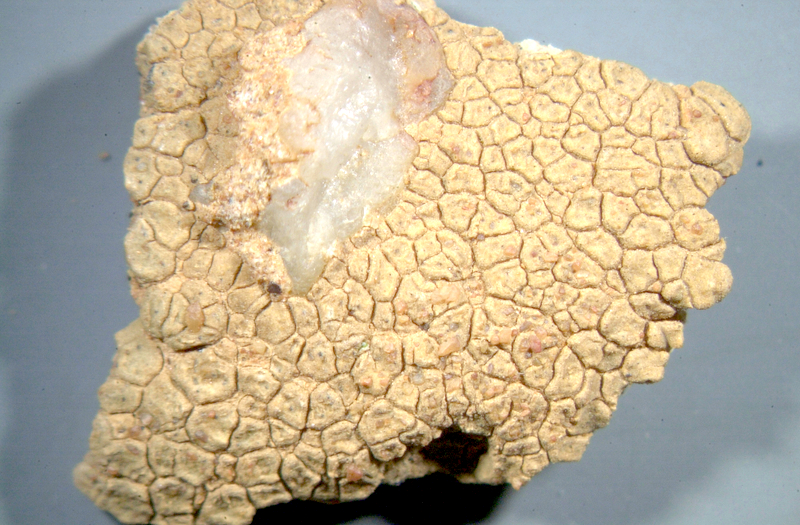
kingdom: Fungi
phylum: Ascomycota
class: Lecanoromycetes
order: Ostropales
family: Graphidaceae
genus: Diploschistes
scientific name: Diploschistes hensseniae
